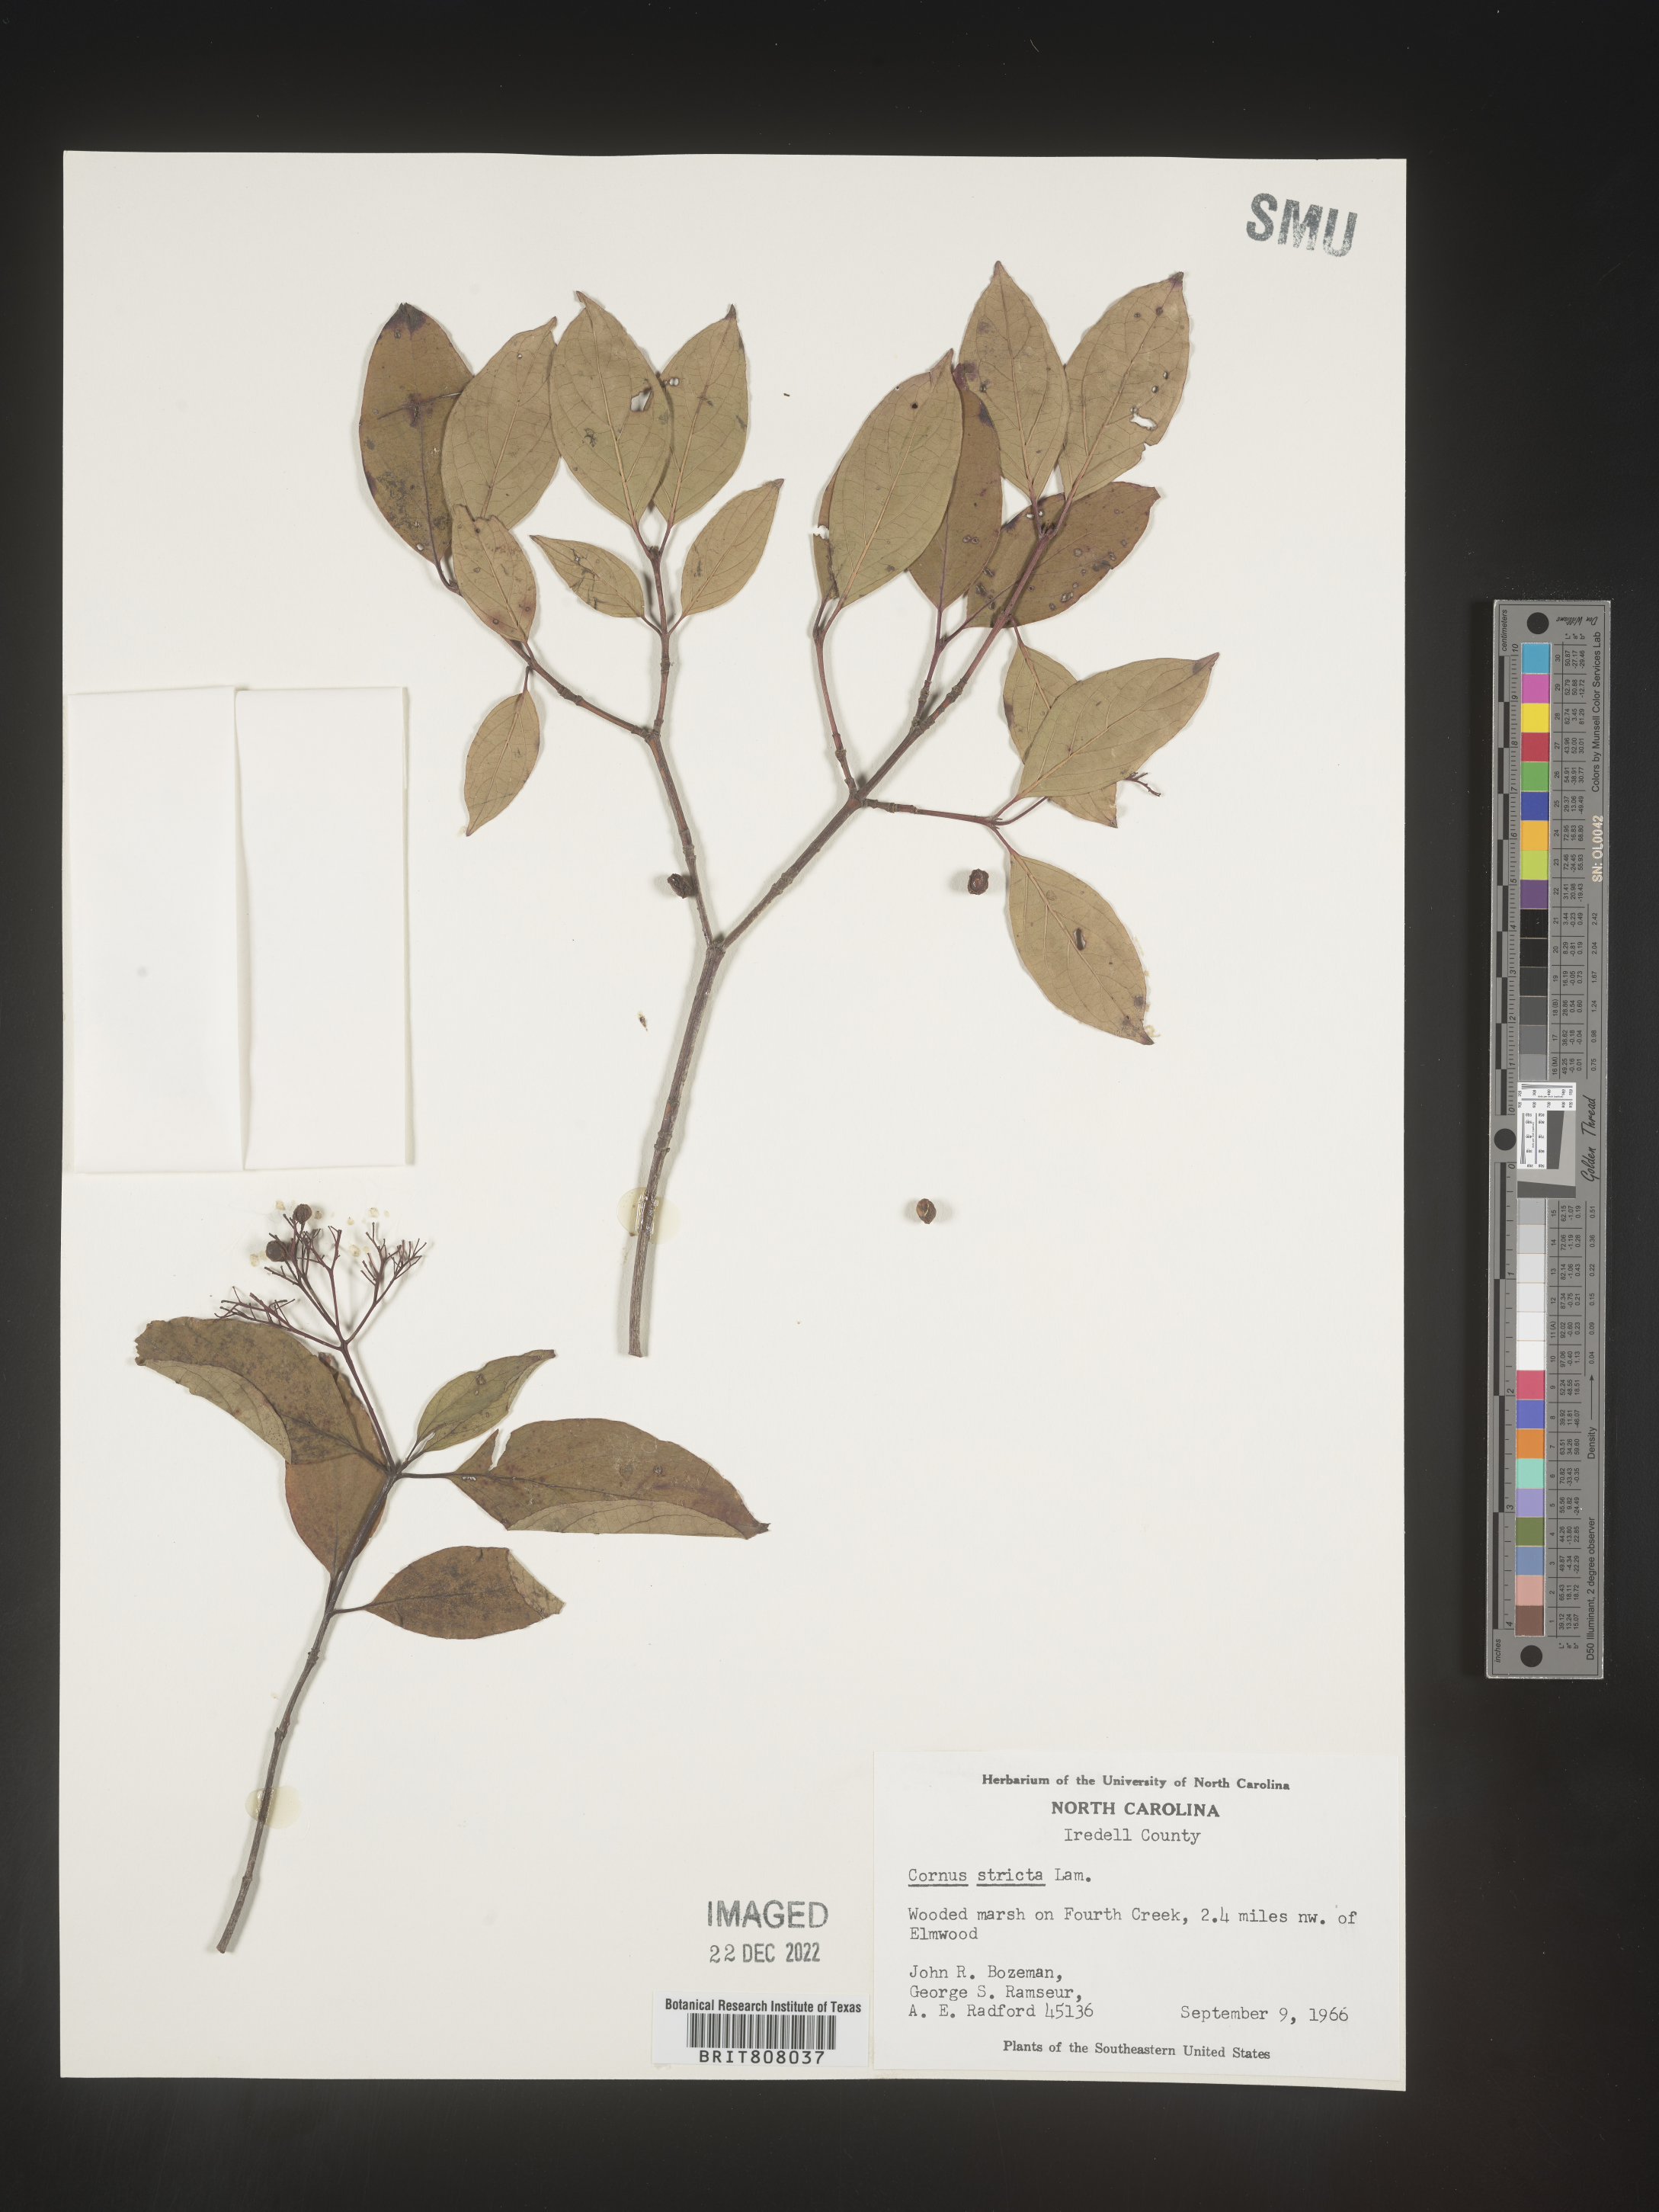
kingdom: Plantae
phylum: Tracheophyta
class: Magnoliopsida
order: Cornales
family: Cornaceae
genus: Cornus
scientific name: Cornus foemina
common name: Swamp dogwood
